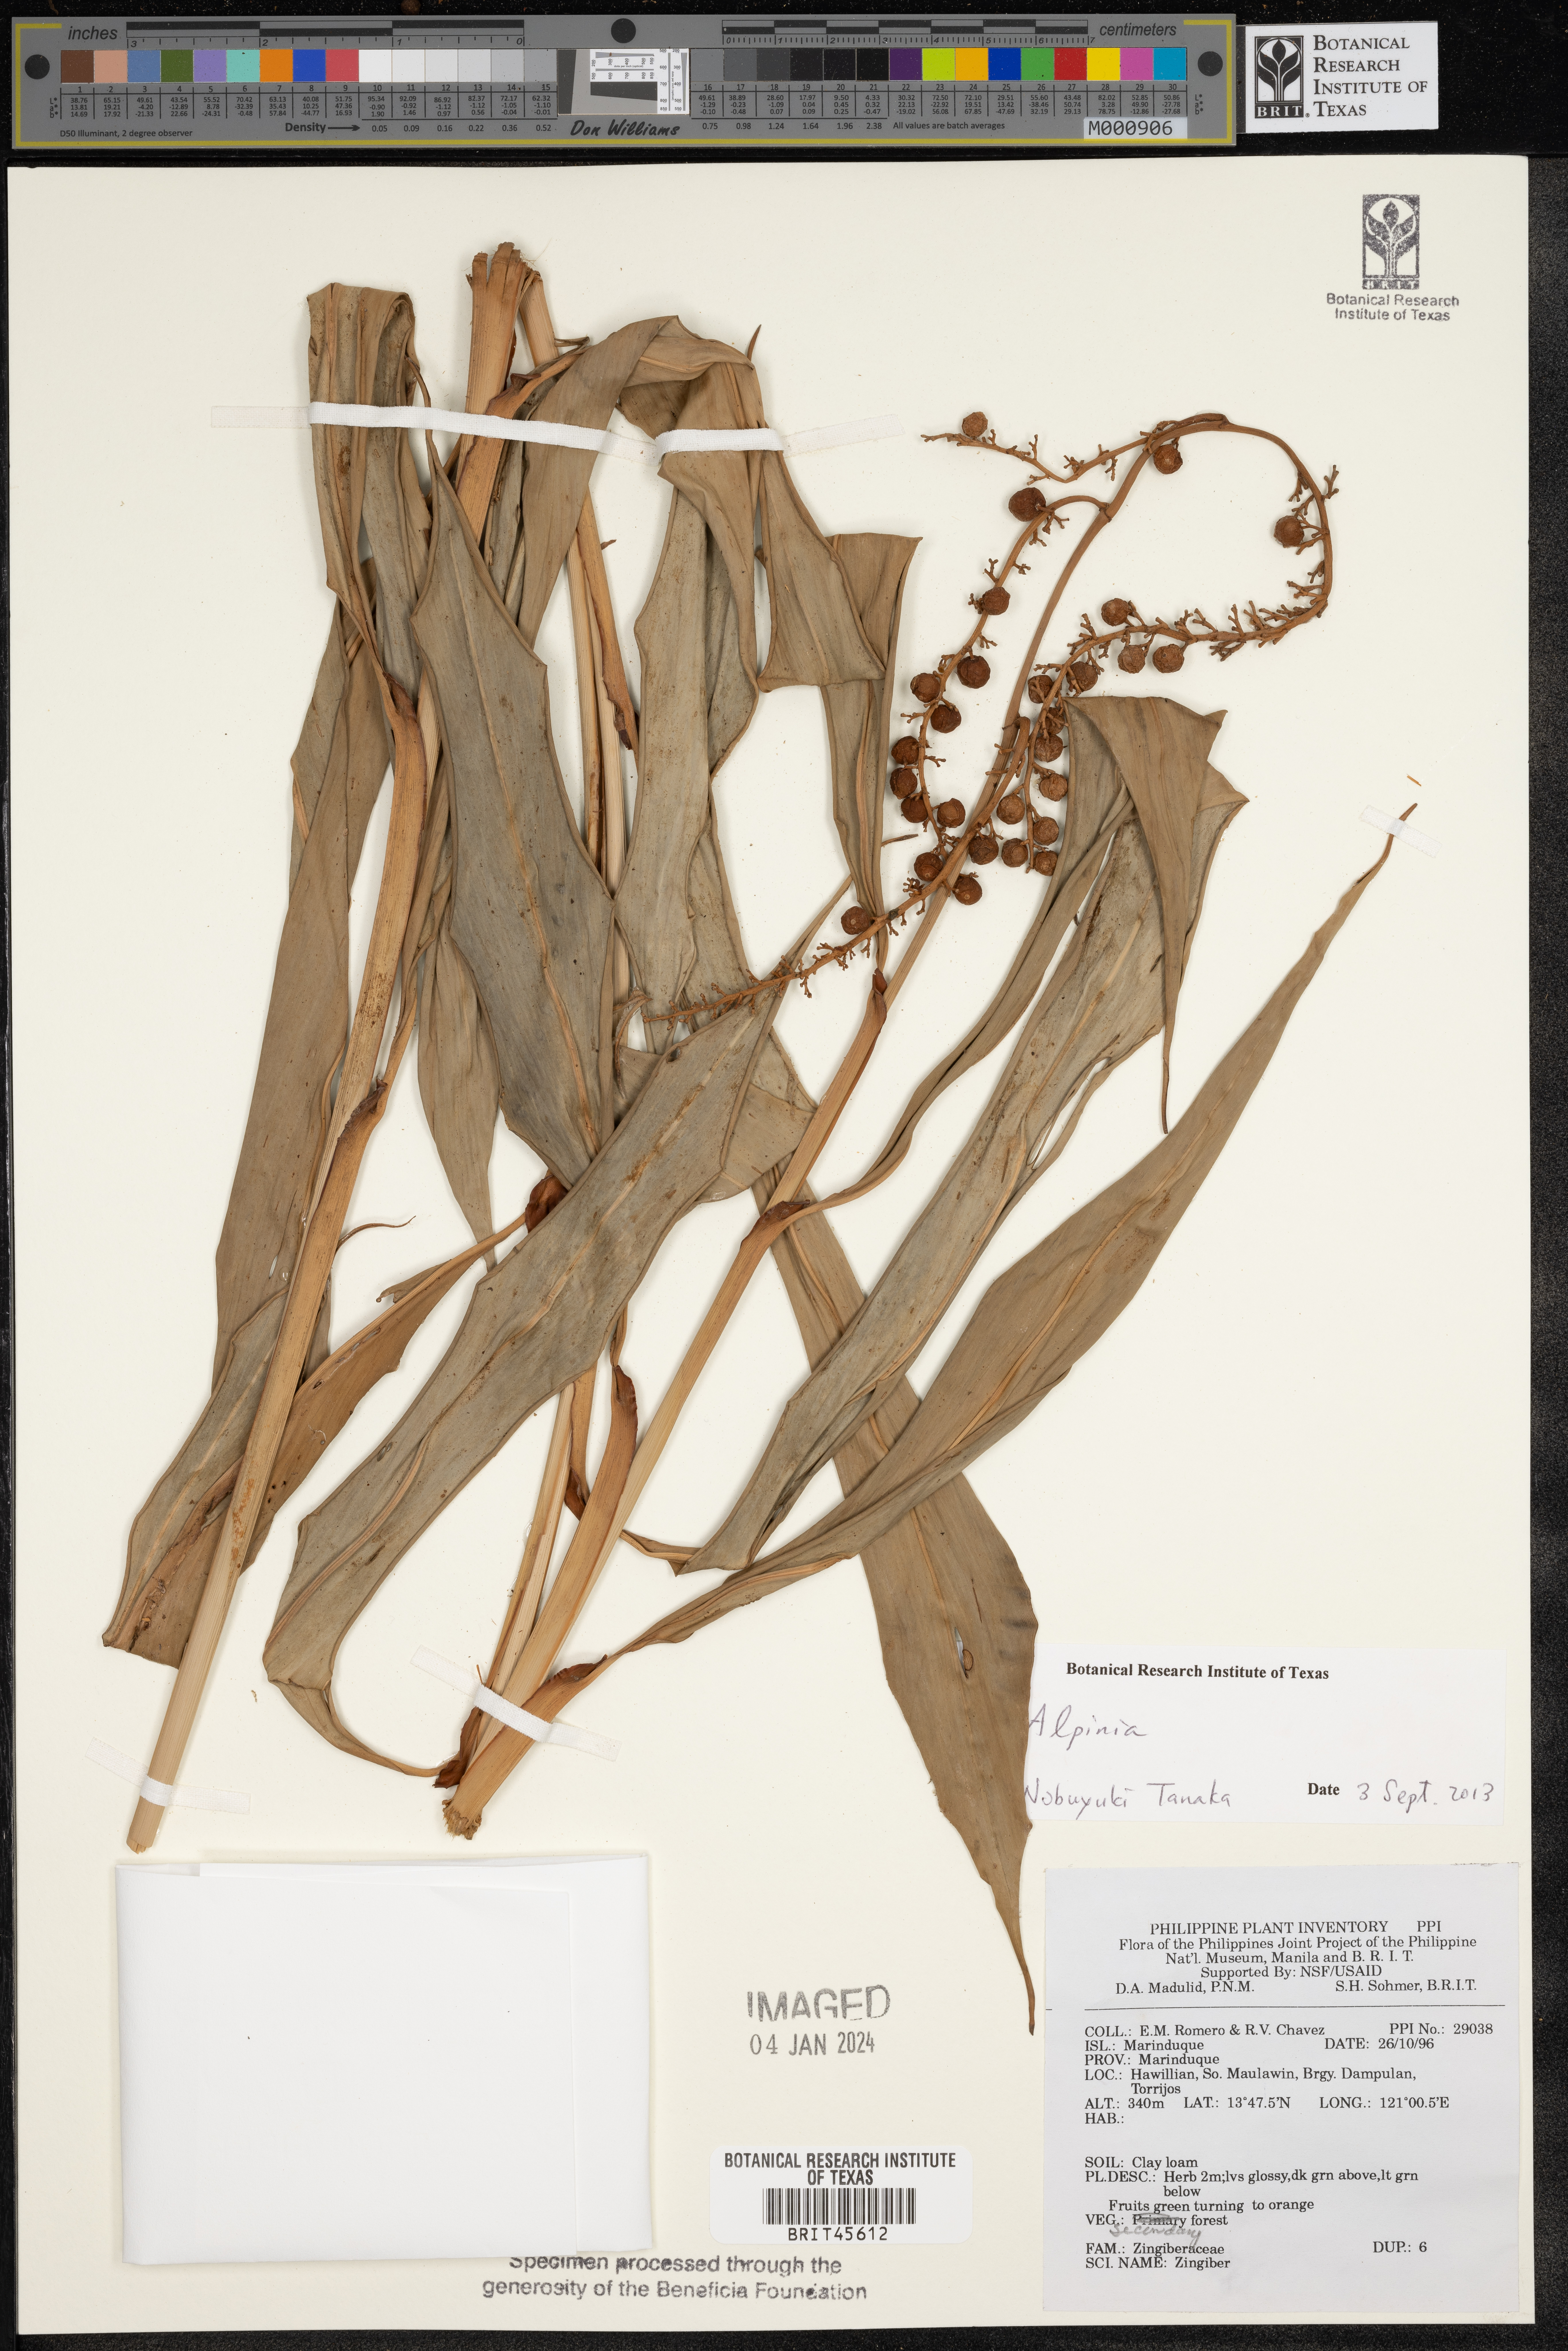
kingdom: Plantae
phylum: Tracheophyta
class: Liliopsida
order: Zingiberales
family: Zingiberaceae
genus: Zingiber
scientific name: Zingiber
